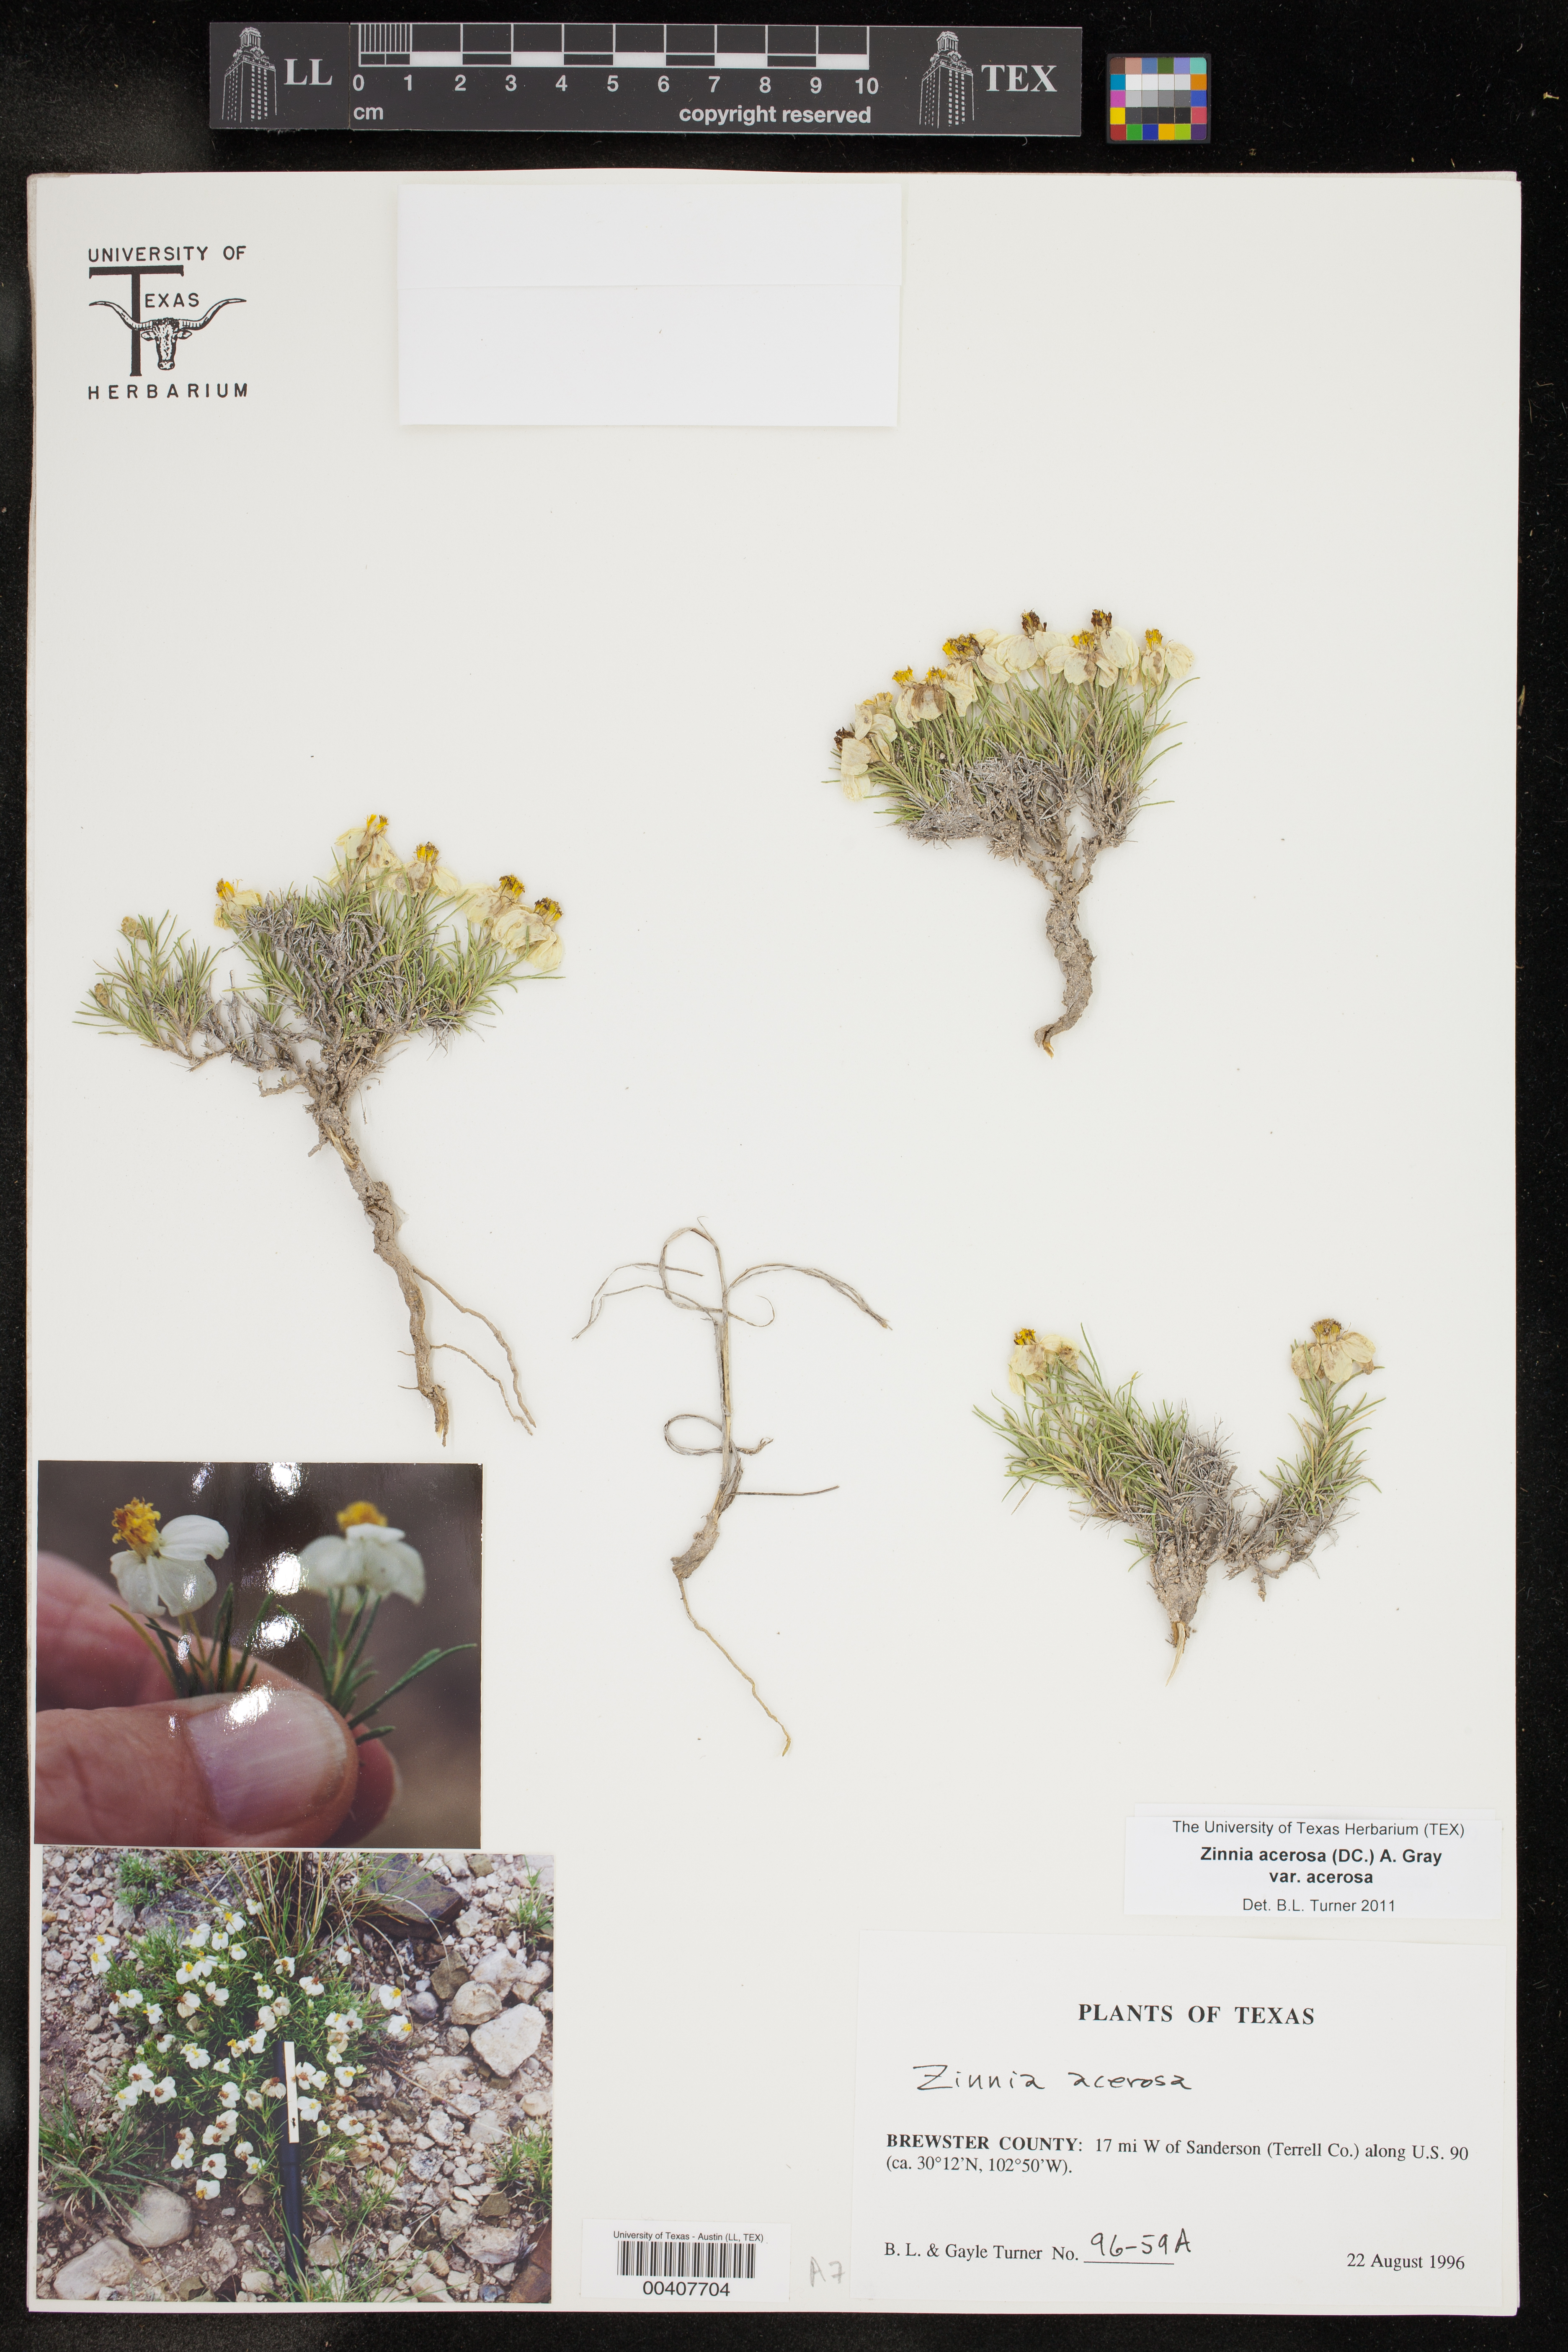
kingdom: Plantae
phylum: Tracheophyta
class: Magnoliopsida
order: Asterales
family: Asteraceae
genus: Zinnia
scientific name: Zinnia acerosa
